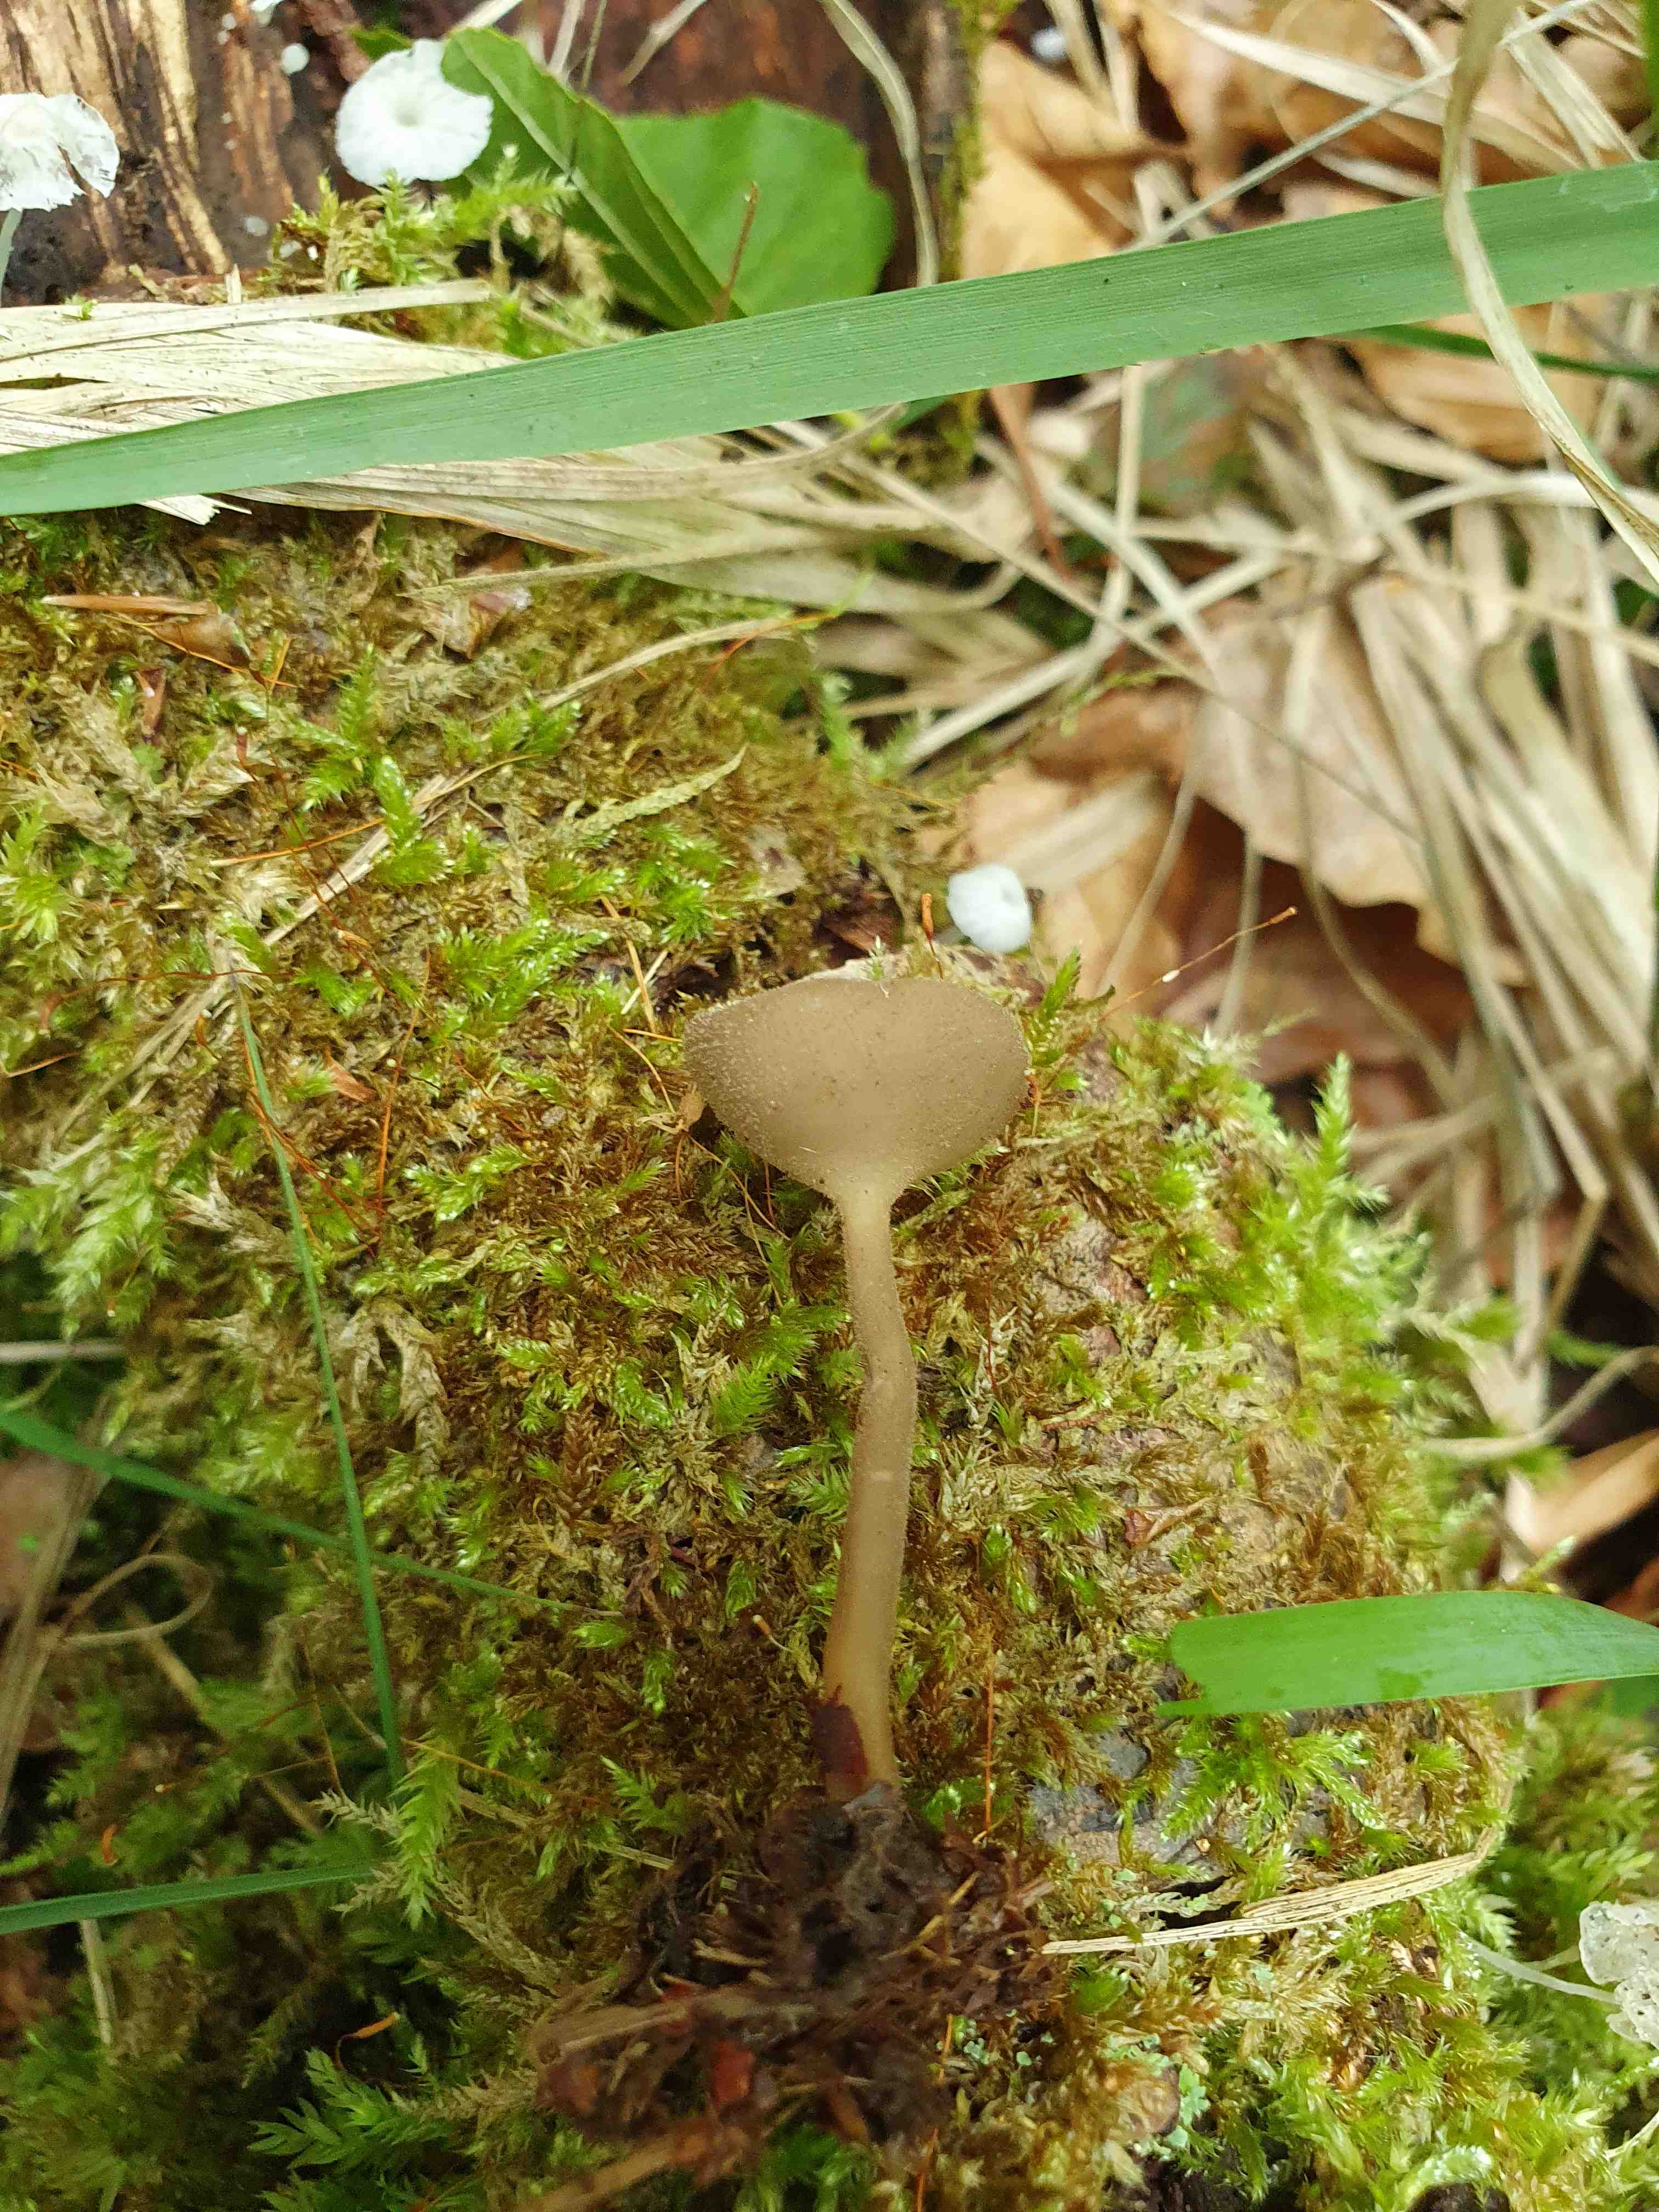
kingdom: Fungi
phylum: Ascomycota
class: Pezizomycetes
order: Pezizales
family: Helvellaceae
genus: Helvella
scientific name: Helvella macropus
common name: højstokket foldhat
